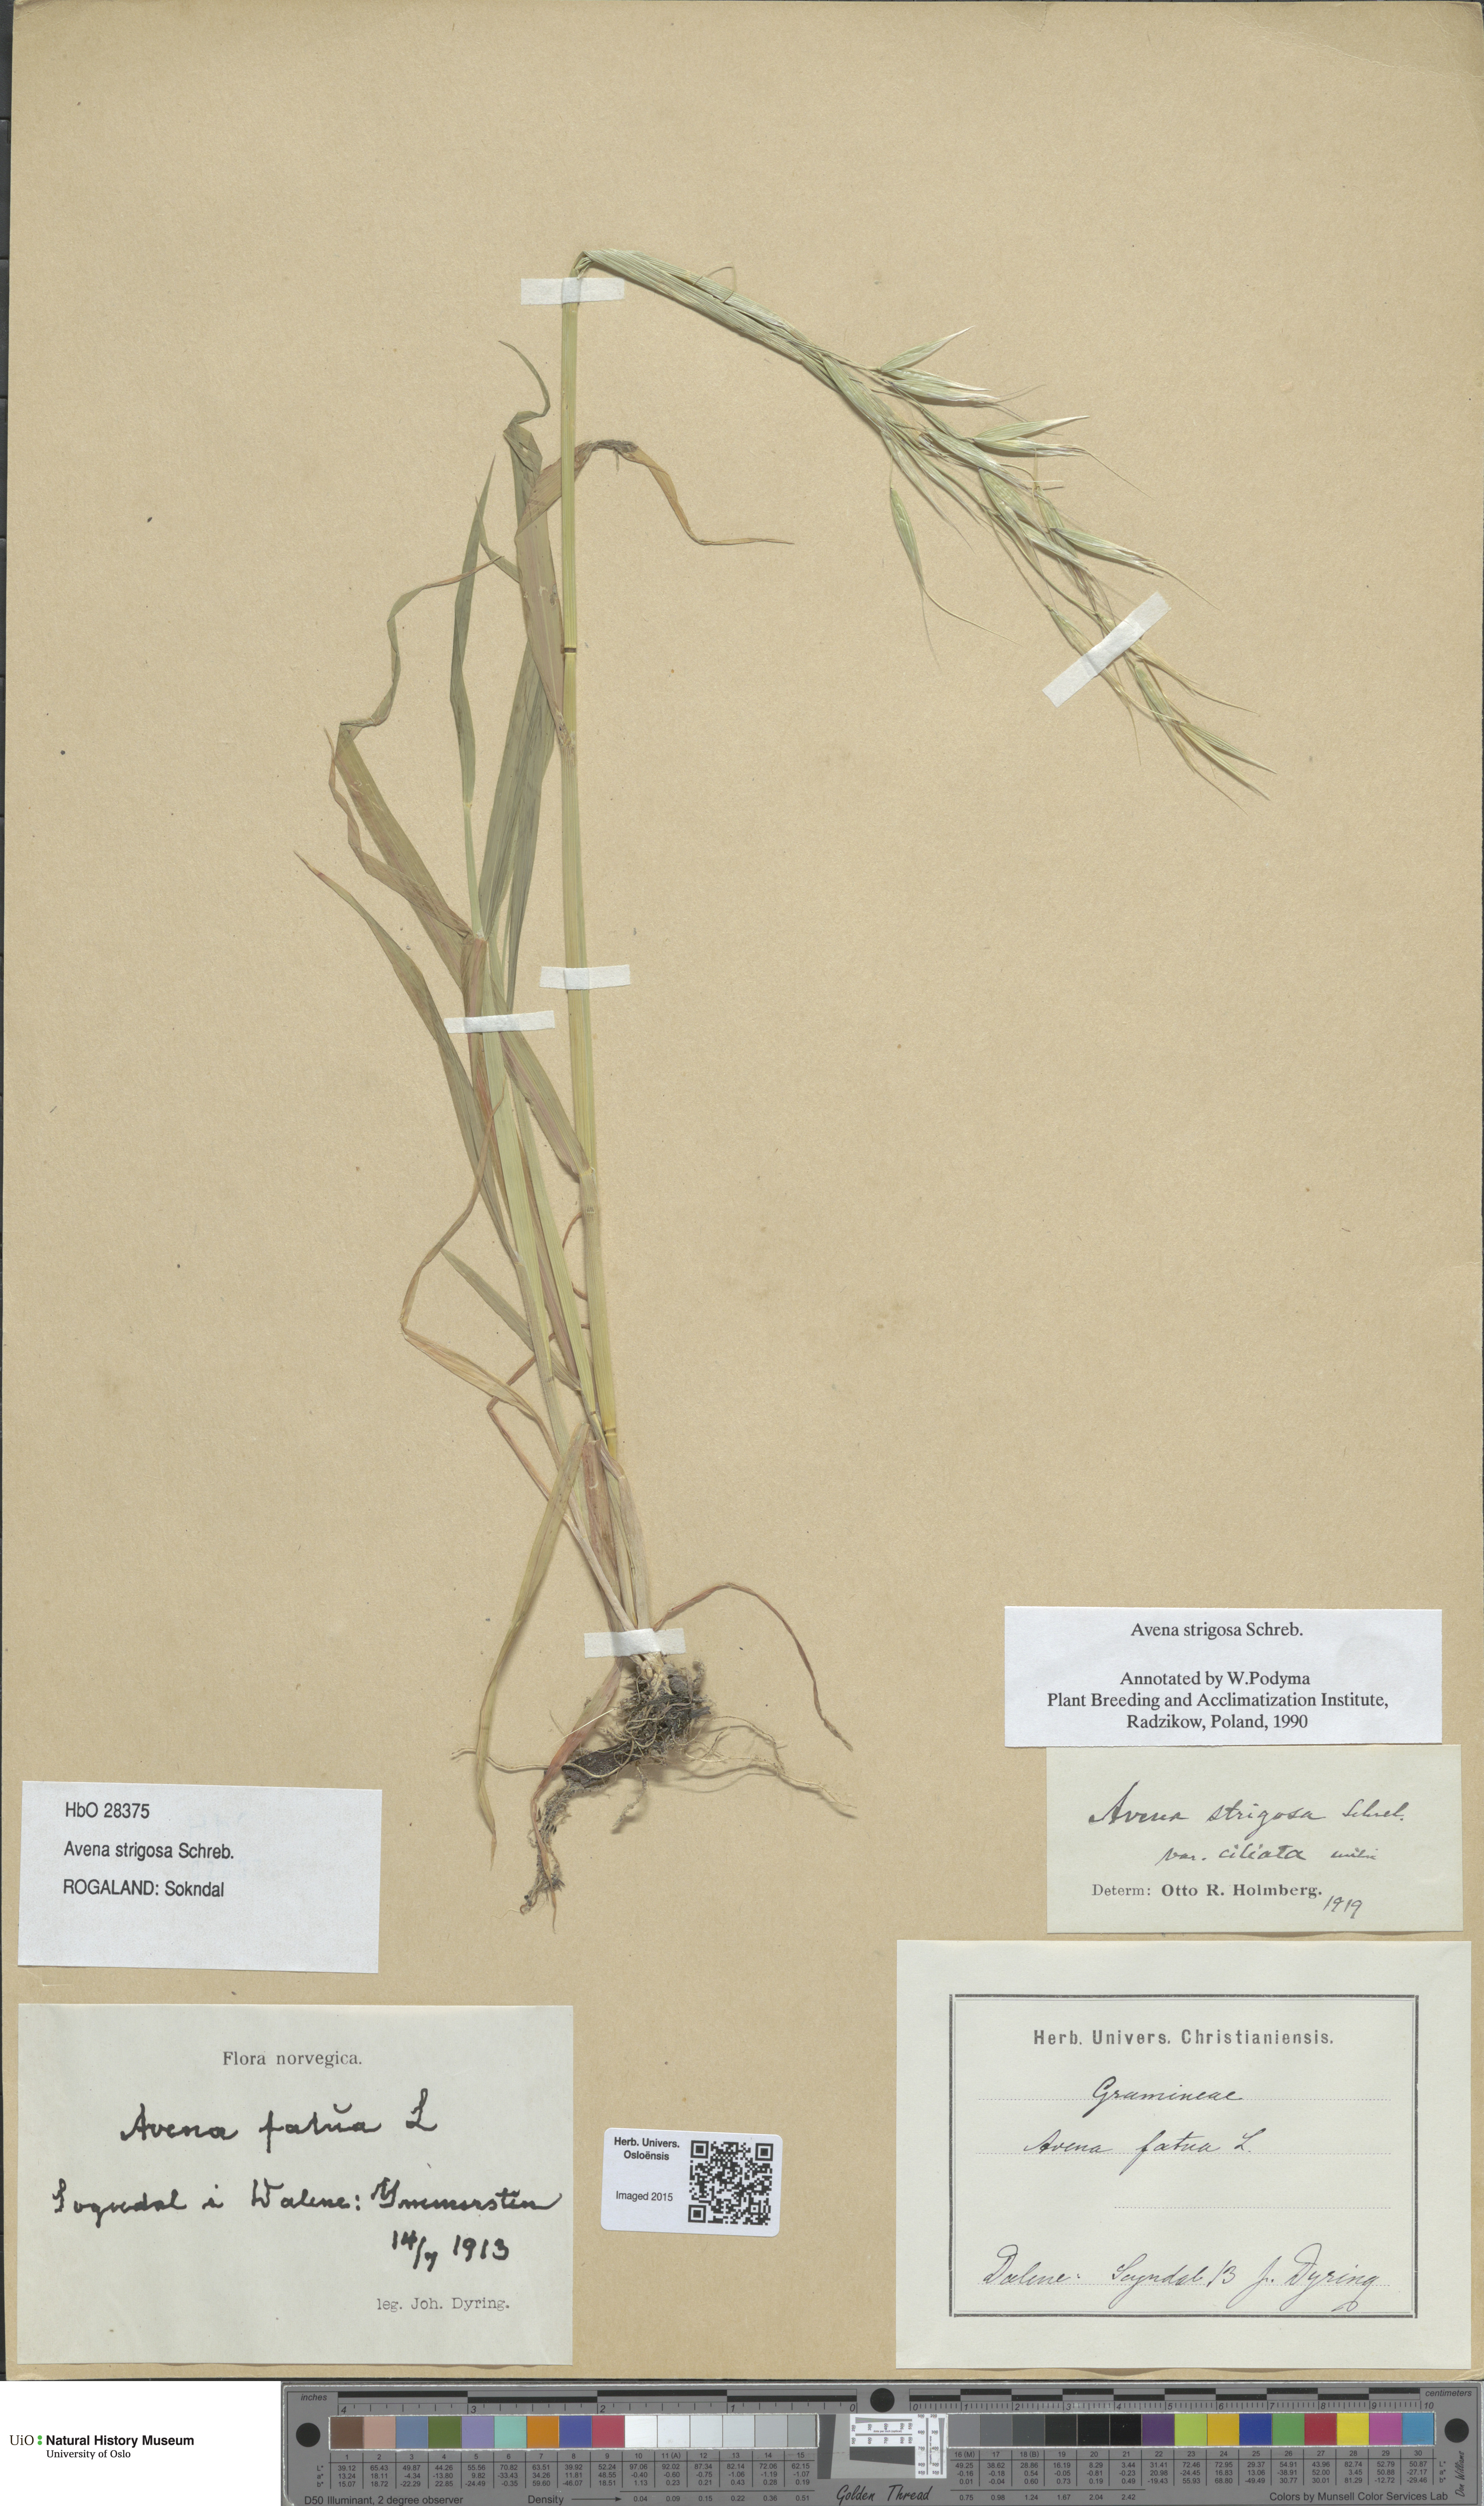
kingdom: Plantae
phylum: Tracheophyta
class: Liliopsida
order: Poales
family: Poaceae
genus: Avena
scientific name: Avena strigosa
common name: Bristle oat
